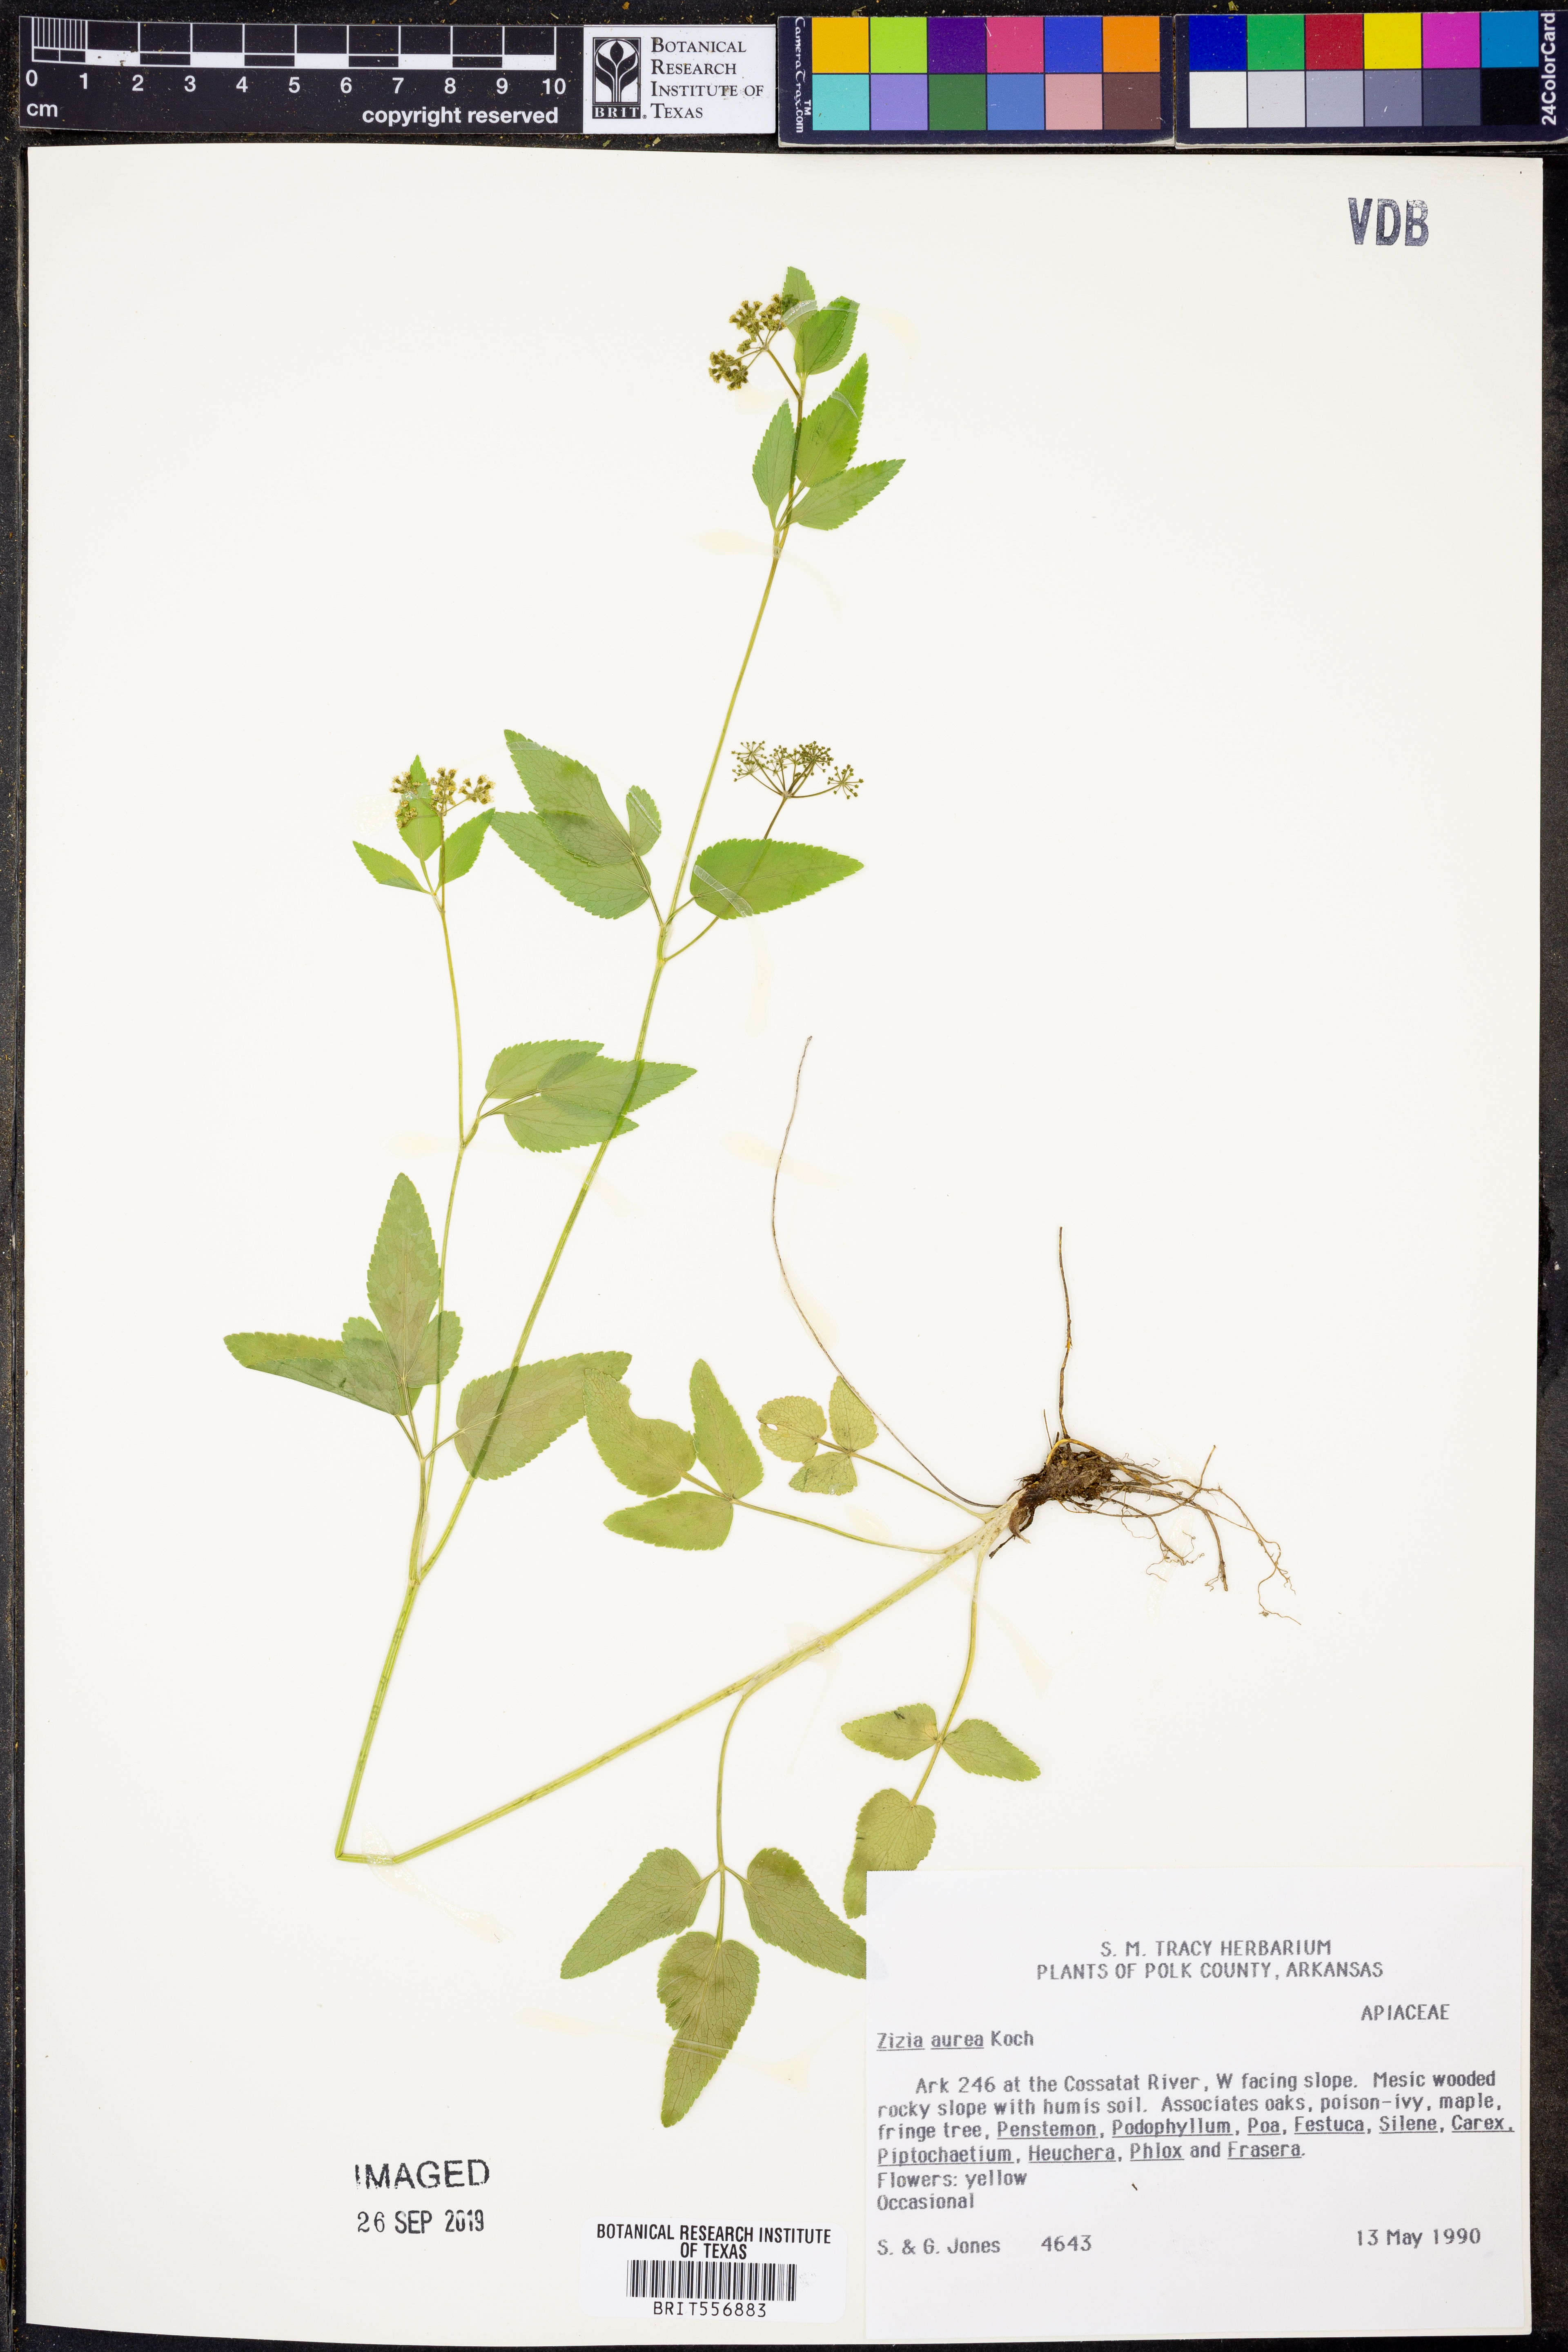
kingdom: Plantae
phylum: Tracheophyta
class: Magnoliopsida
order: Apiales
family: Apiaceae
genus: Zizia
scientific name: Zizia aurea
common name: Golden alexanders
